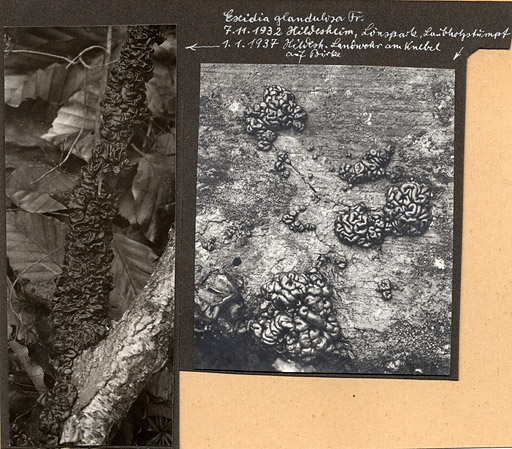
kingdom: Fungi
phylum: Basidiomycota
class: Agaricomycetes
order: Auriculariales
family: Auriculariaceae
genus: Exidia
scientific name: Exidia nigricans
